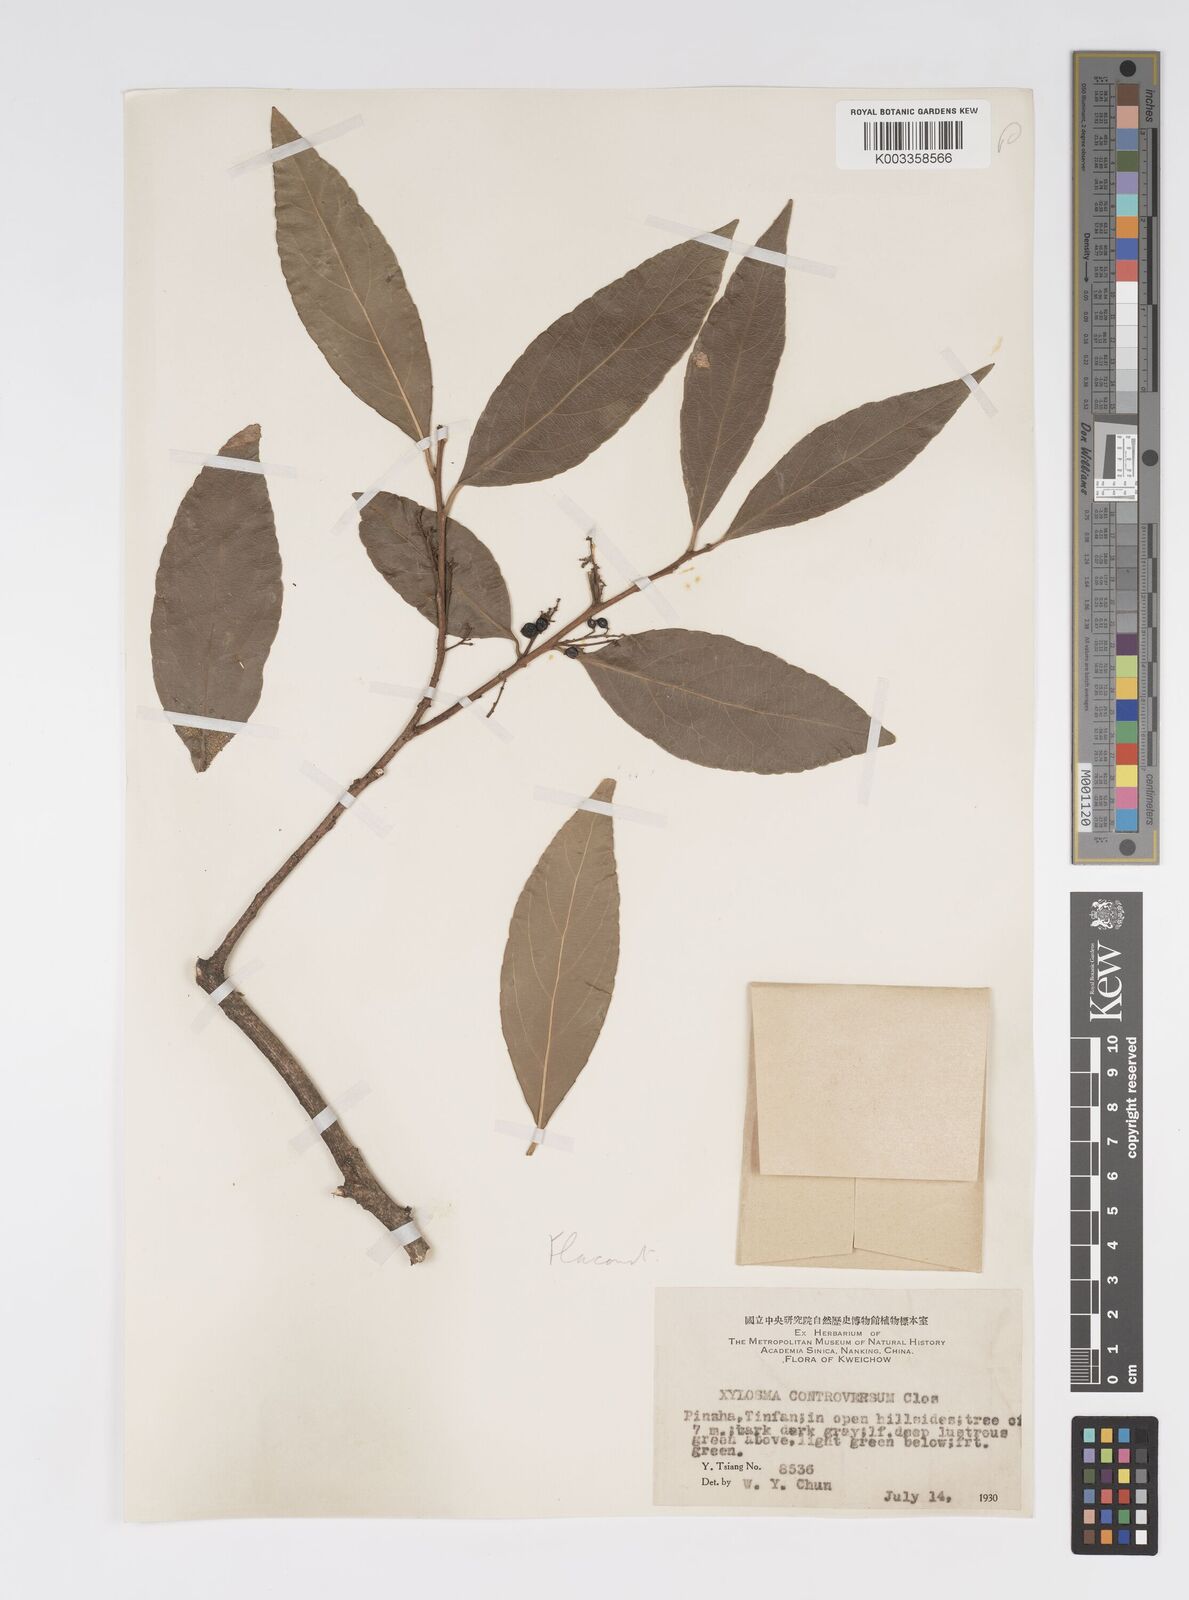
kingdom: Plantae
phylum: Tracheophyta
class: Magnoliopsida
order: Malpighiales
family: Salicaceae
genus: Xylosma
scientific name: Xylosma controversa
